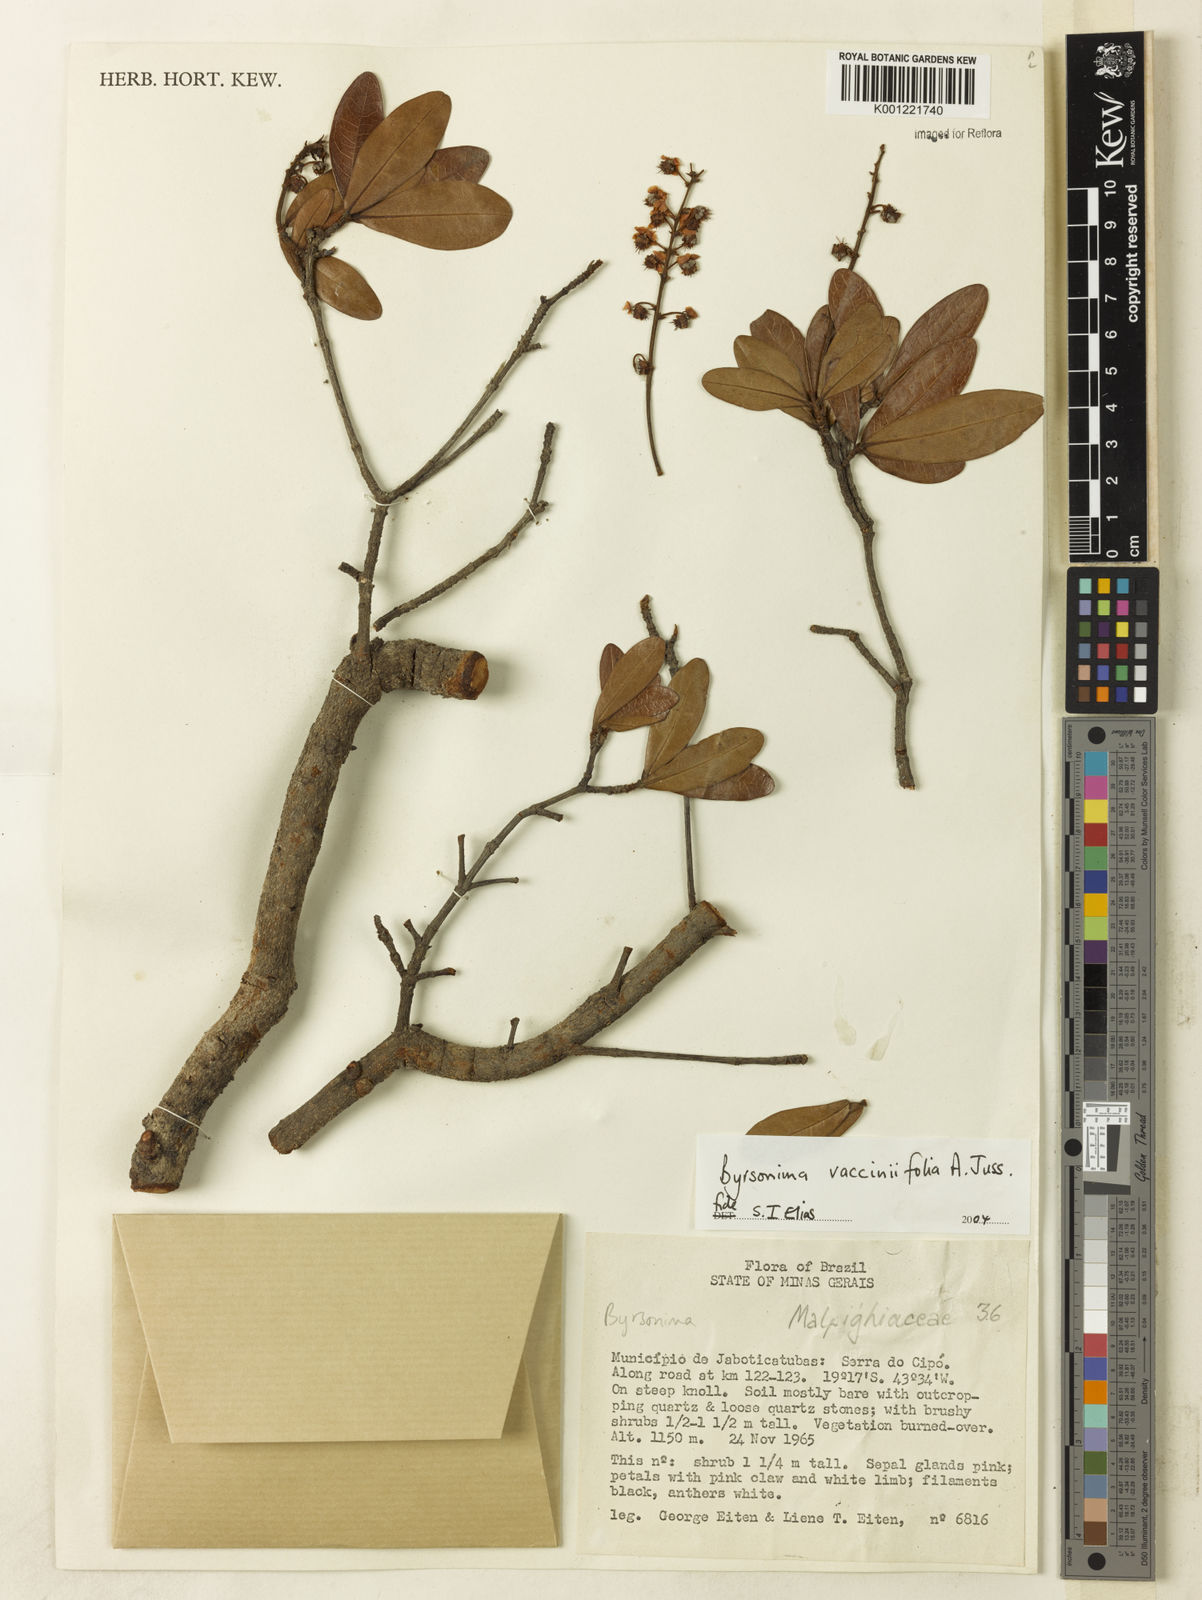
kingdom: Plantae
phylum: Tracheophyta
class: Magnoliopsida
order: Malpighiales
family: Malpighiaceae
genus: Byrsonima
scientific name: Byrsonima vacciniifolia
